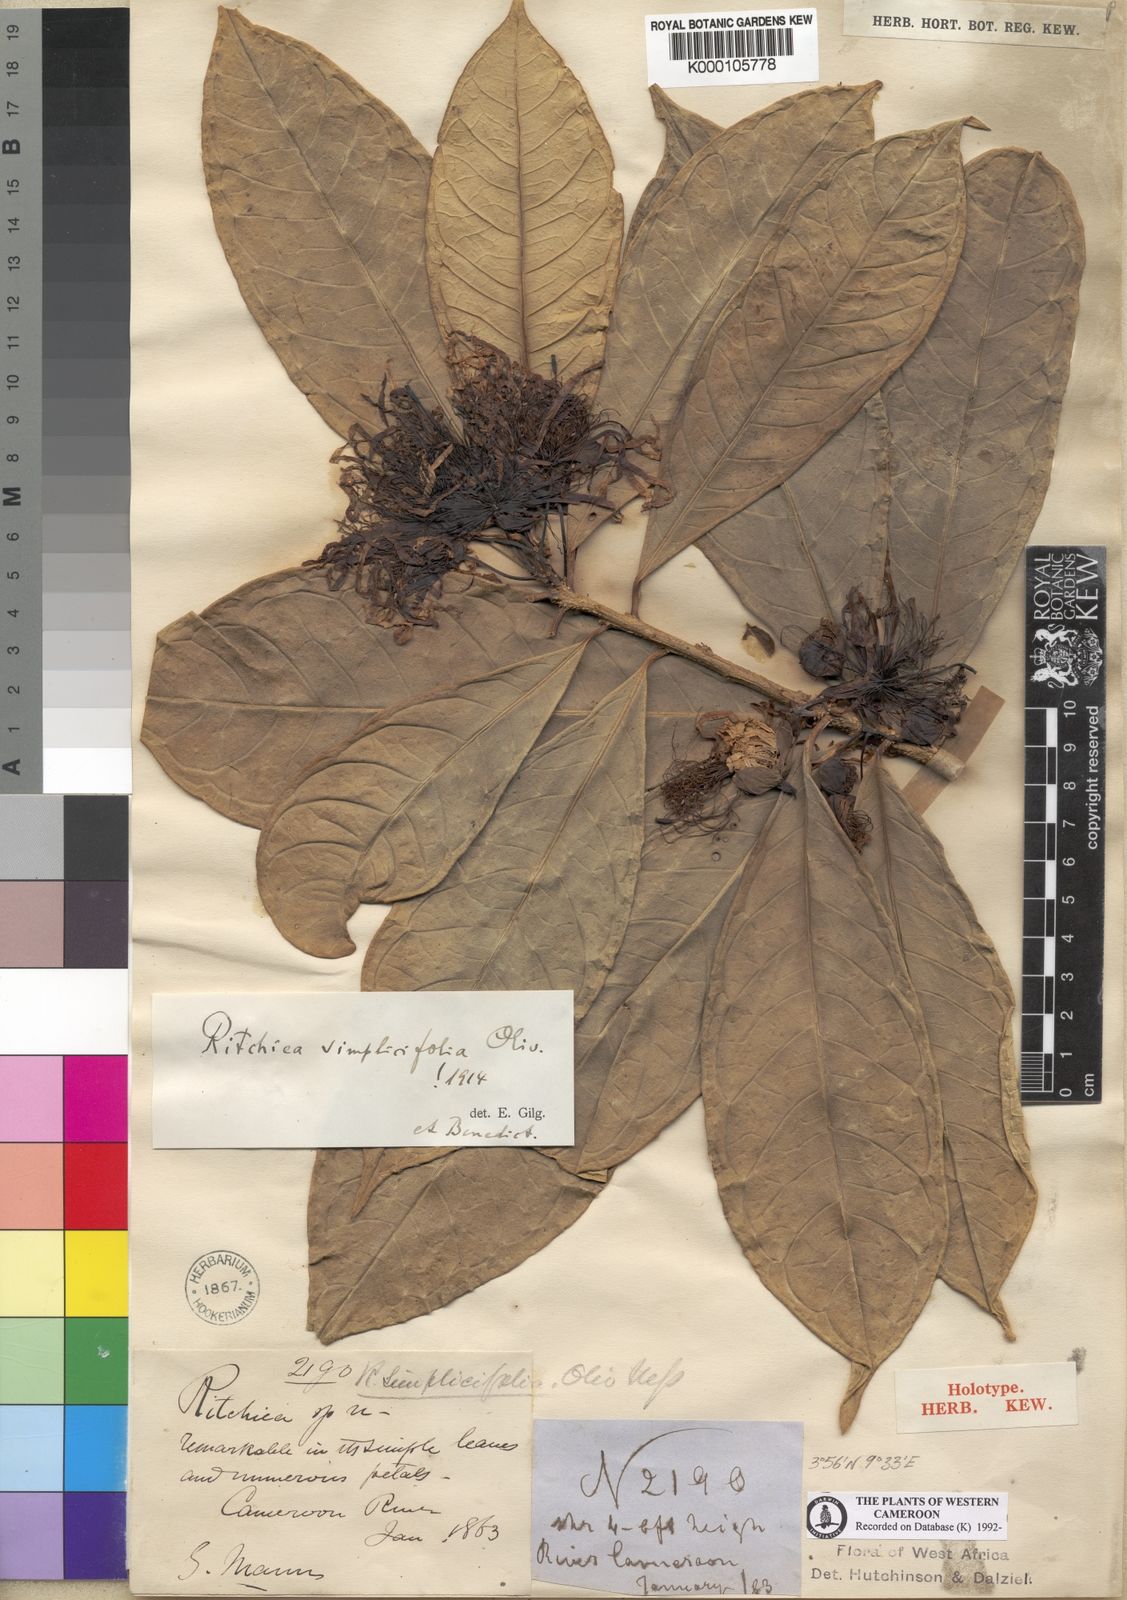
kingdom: Plantae
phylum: Tracheophyta
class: Magnoliopsida
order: Brassicales
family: Capparaceae
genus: Ritchiea
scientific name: Ritchiea simplicifolia
